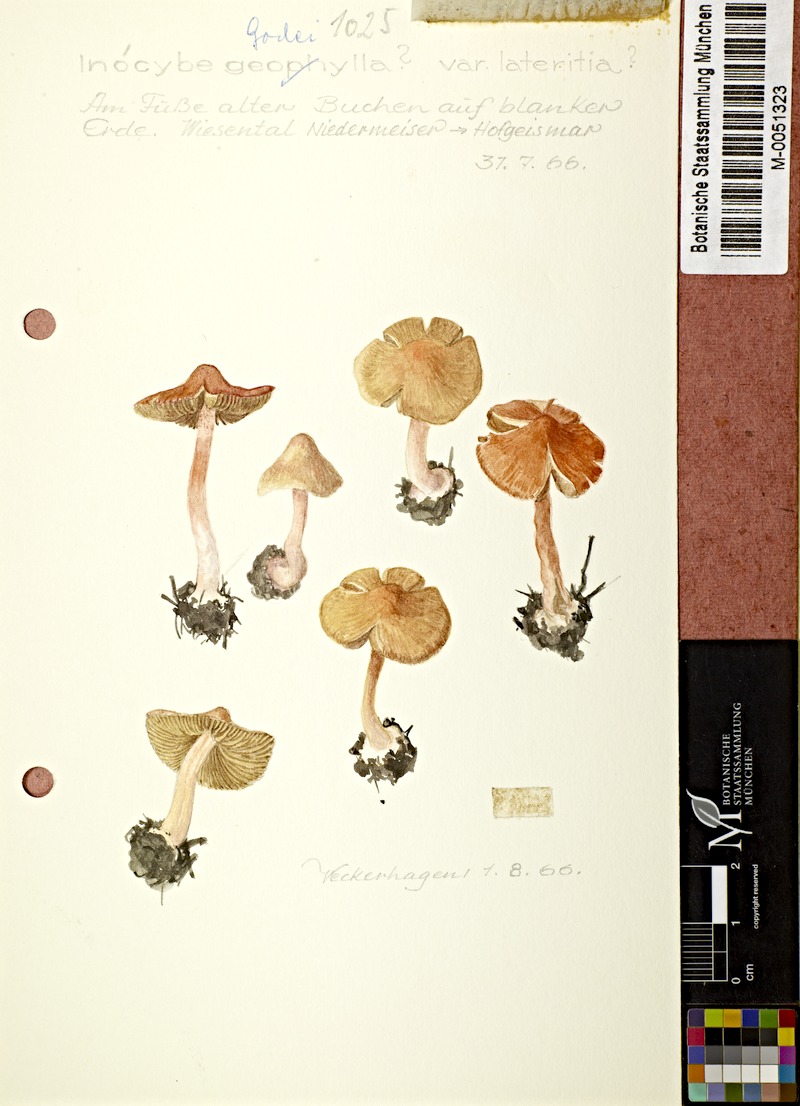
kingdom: Fungi
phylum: Basidiomycota
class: Agaricomycetes
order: Agaricales
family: Inocybaceae
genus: Inocybe
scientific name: Inocybe godeyi
